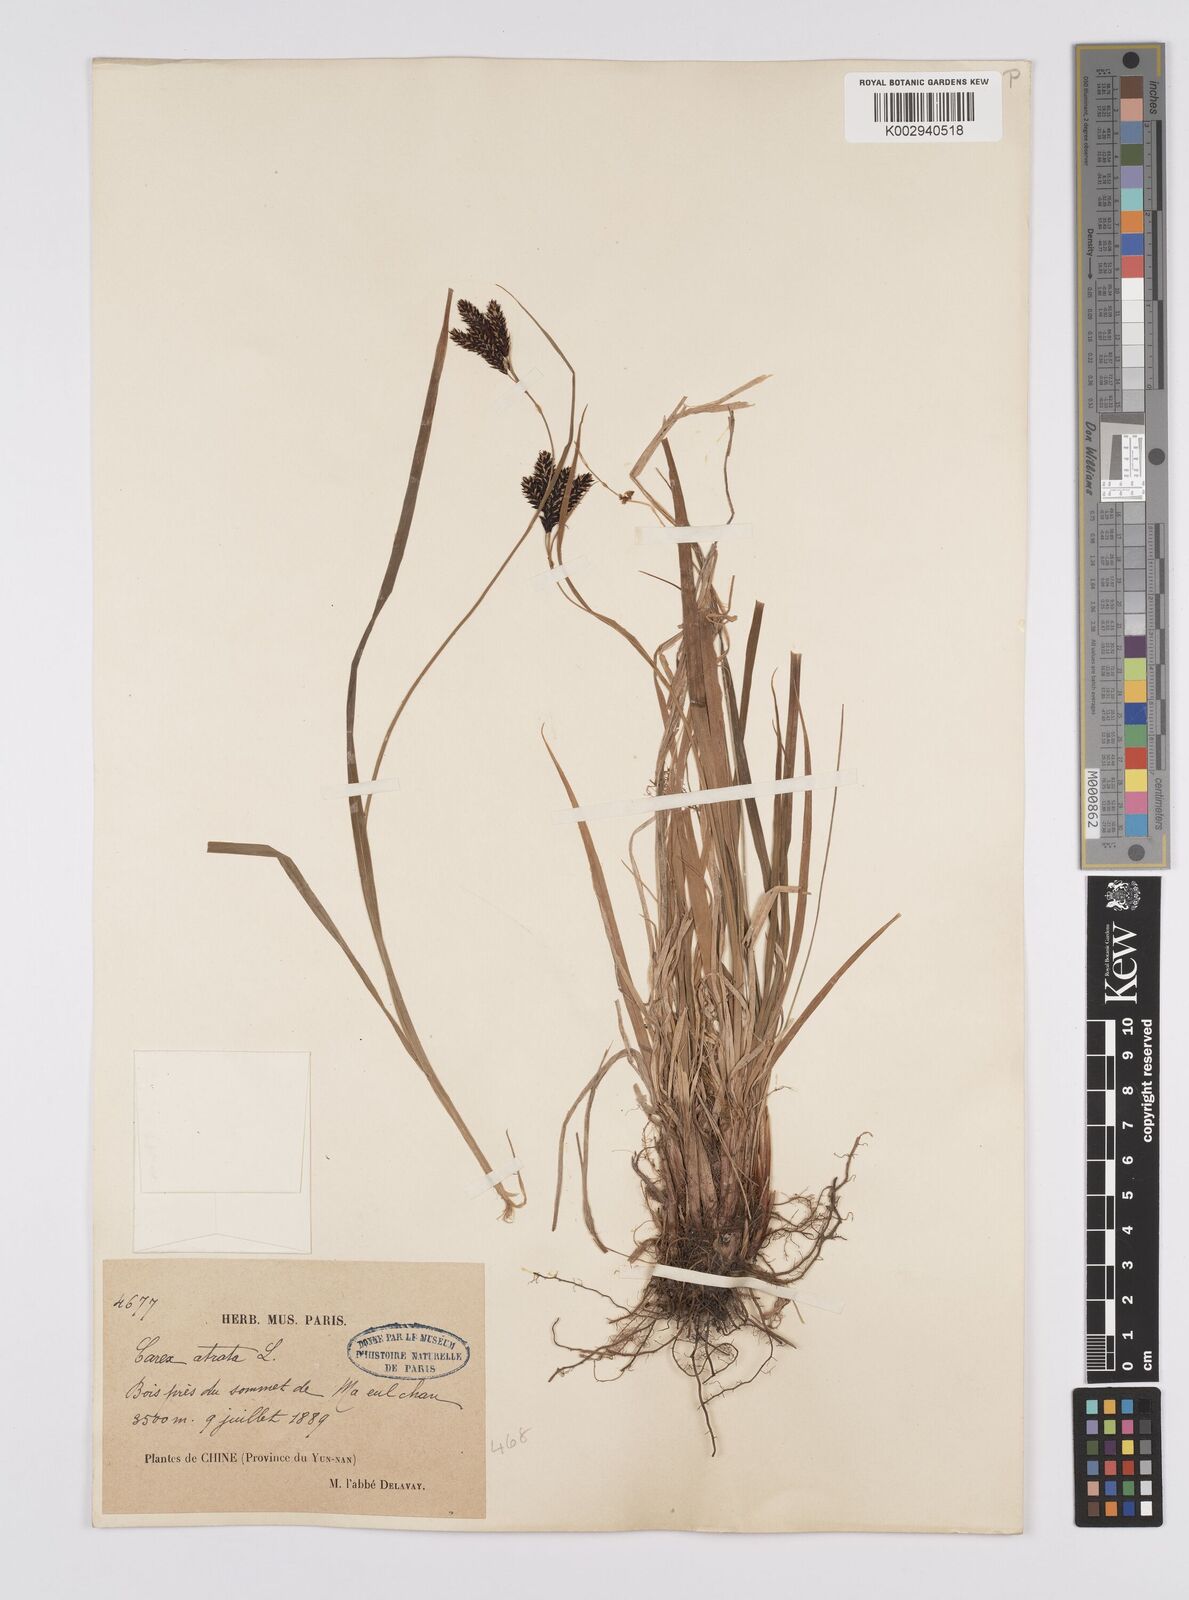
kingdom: Plantae
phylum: Tracheophyta
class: Liliopsida
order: Poales
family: Cyperaceae
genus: Carex
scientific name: Carex atrata
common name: Black alpine sedge
